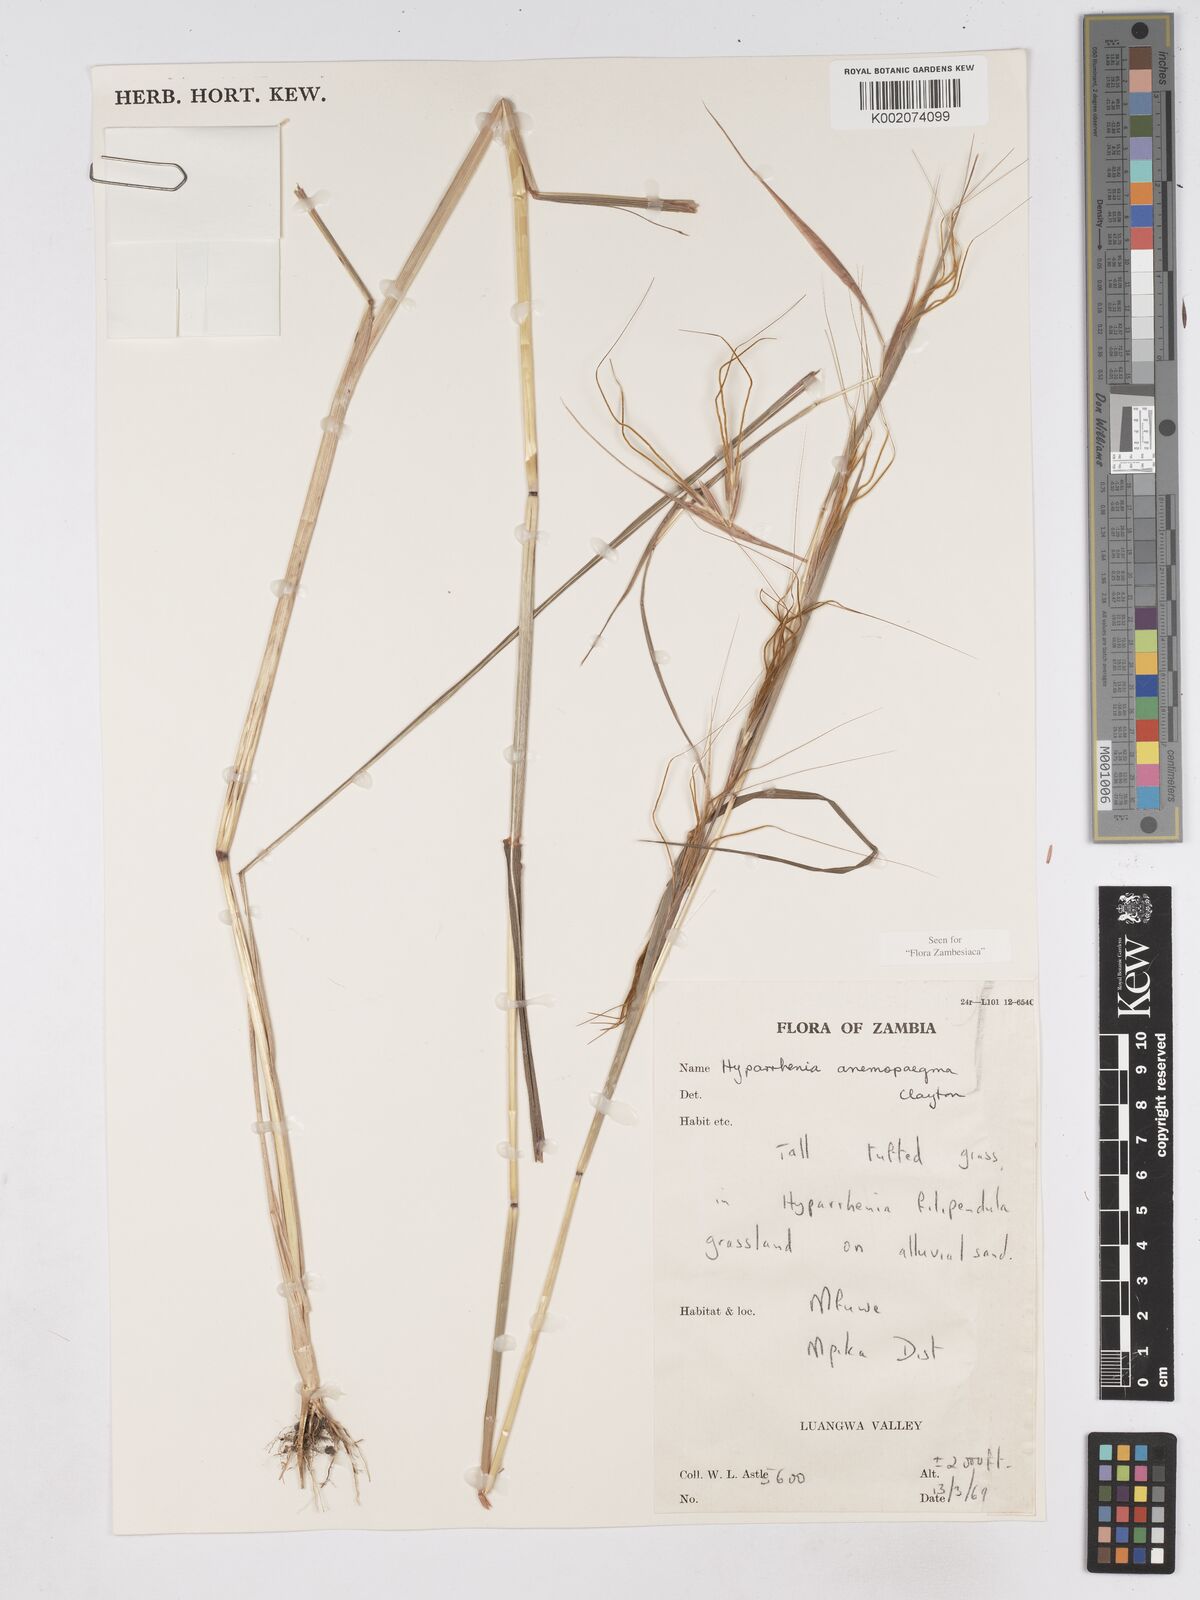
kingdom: Plantae
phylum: Tracheophyta
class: Liliopsida
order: Poales
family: Poaceae
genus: Hyparrhenia
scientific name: Hyparrhenia anemopaegma
